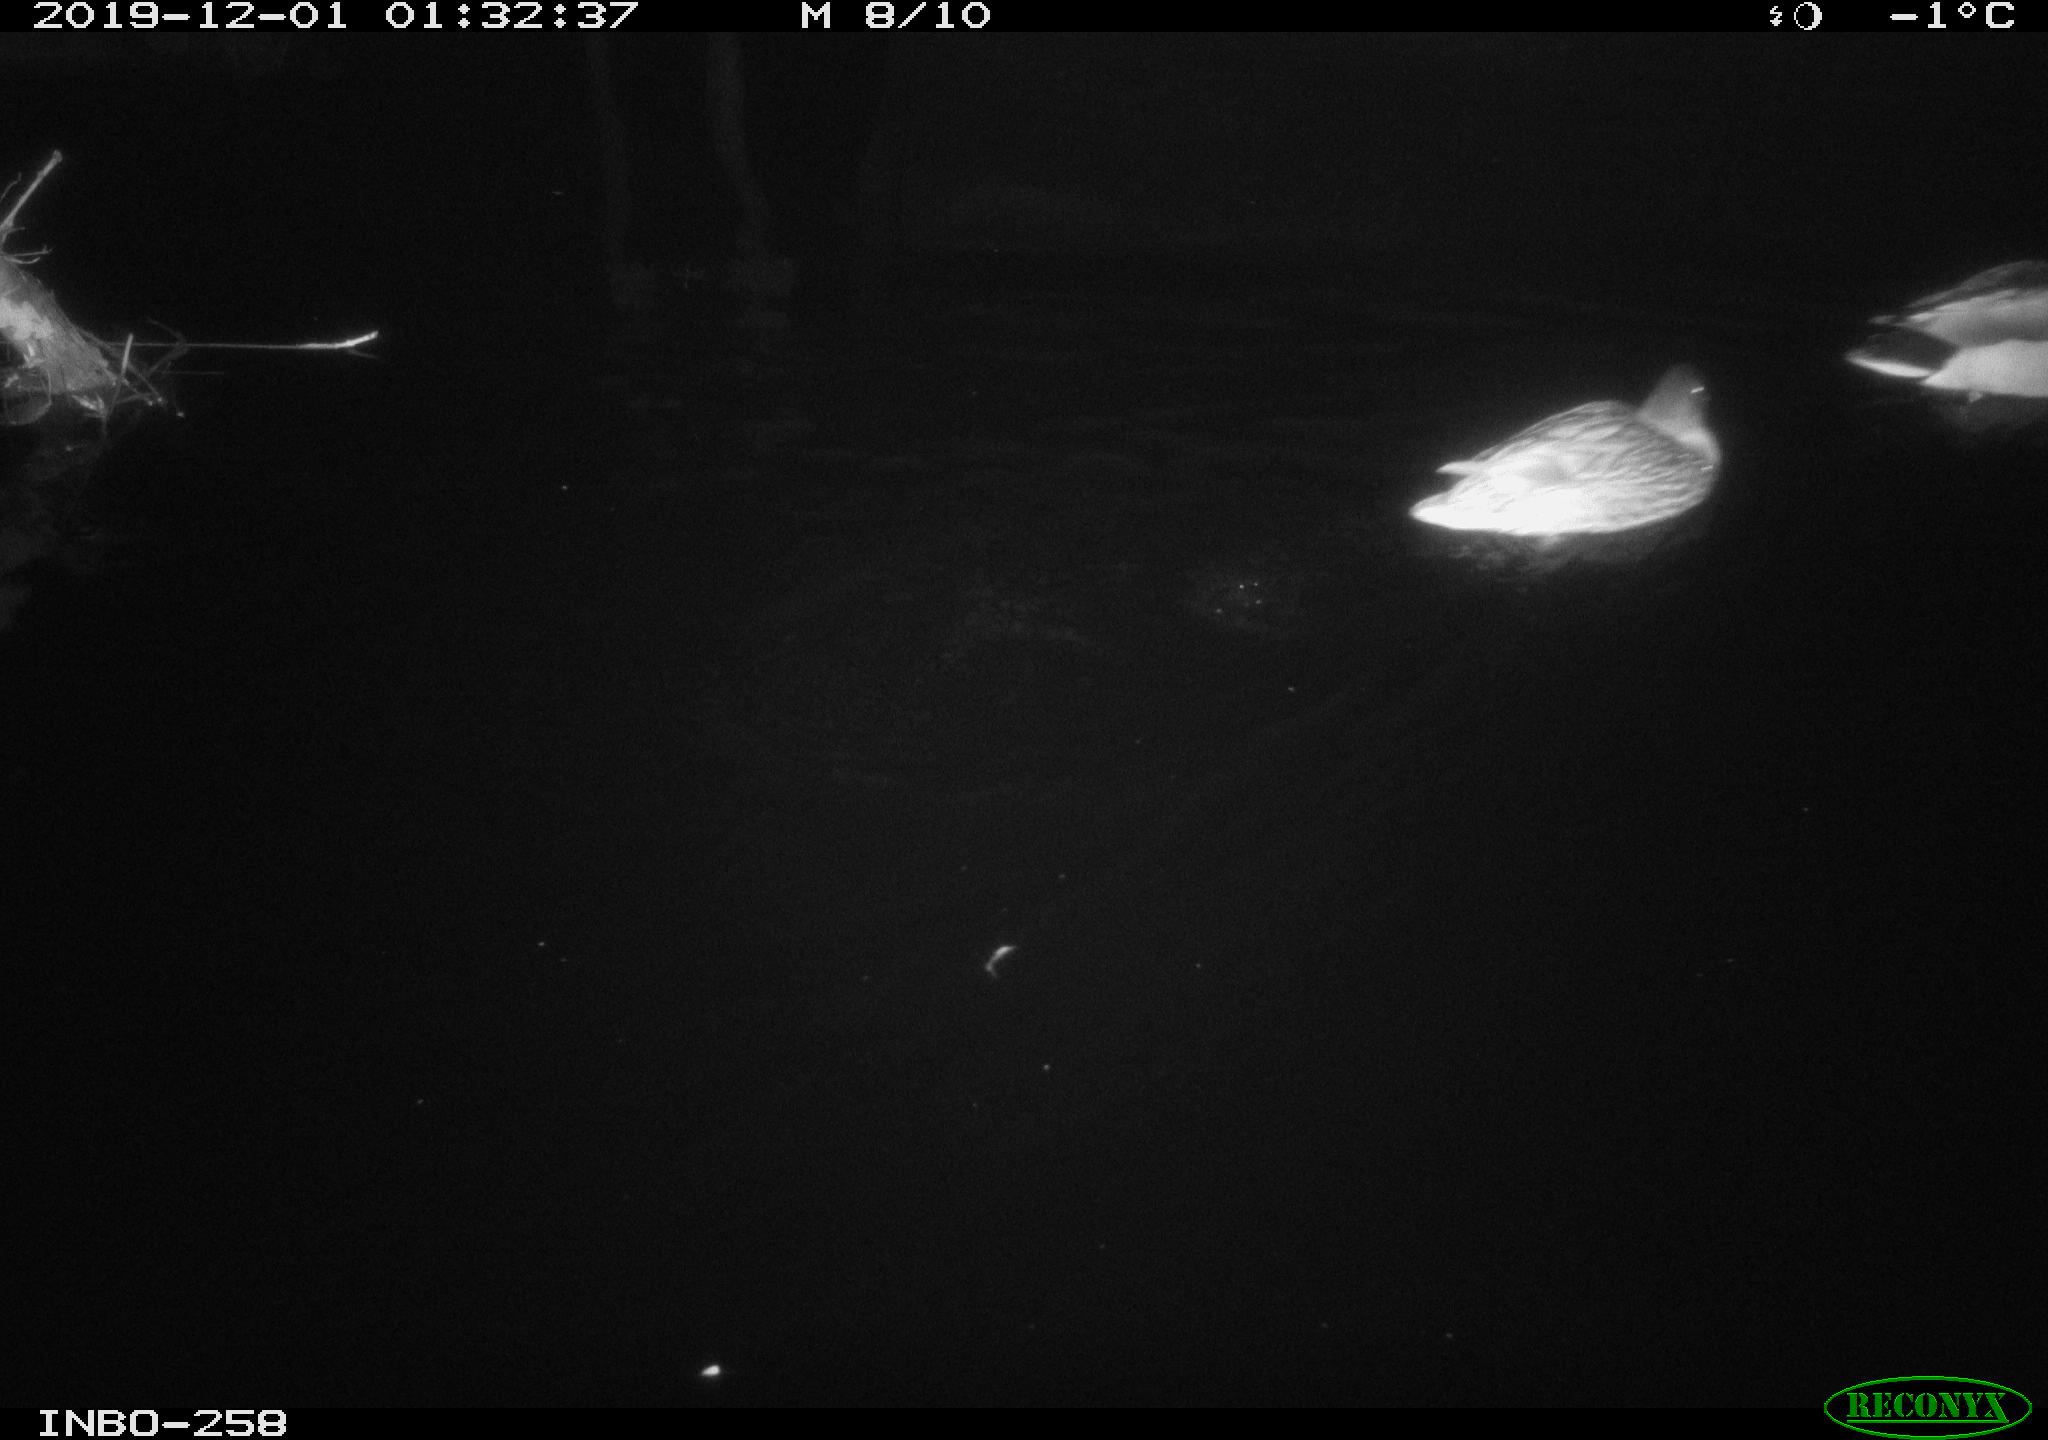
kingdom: Animalia
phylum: Chordata
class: Aves
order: Anseriformes
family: Anatidae
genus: Anas
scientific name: Anas platyrhynchos
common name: Mallard
